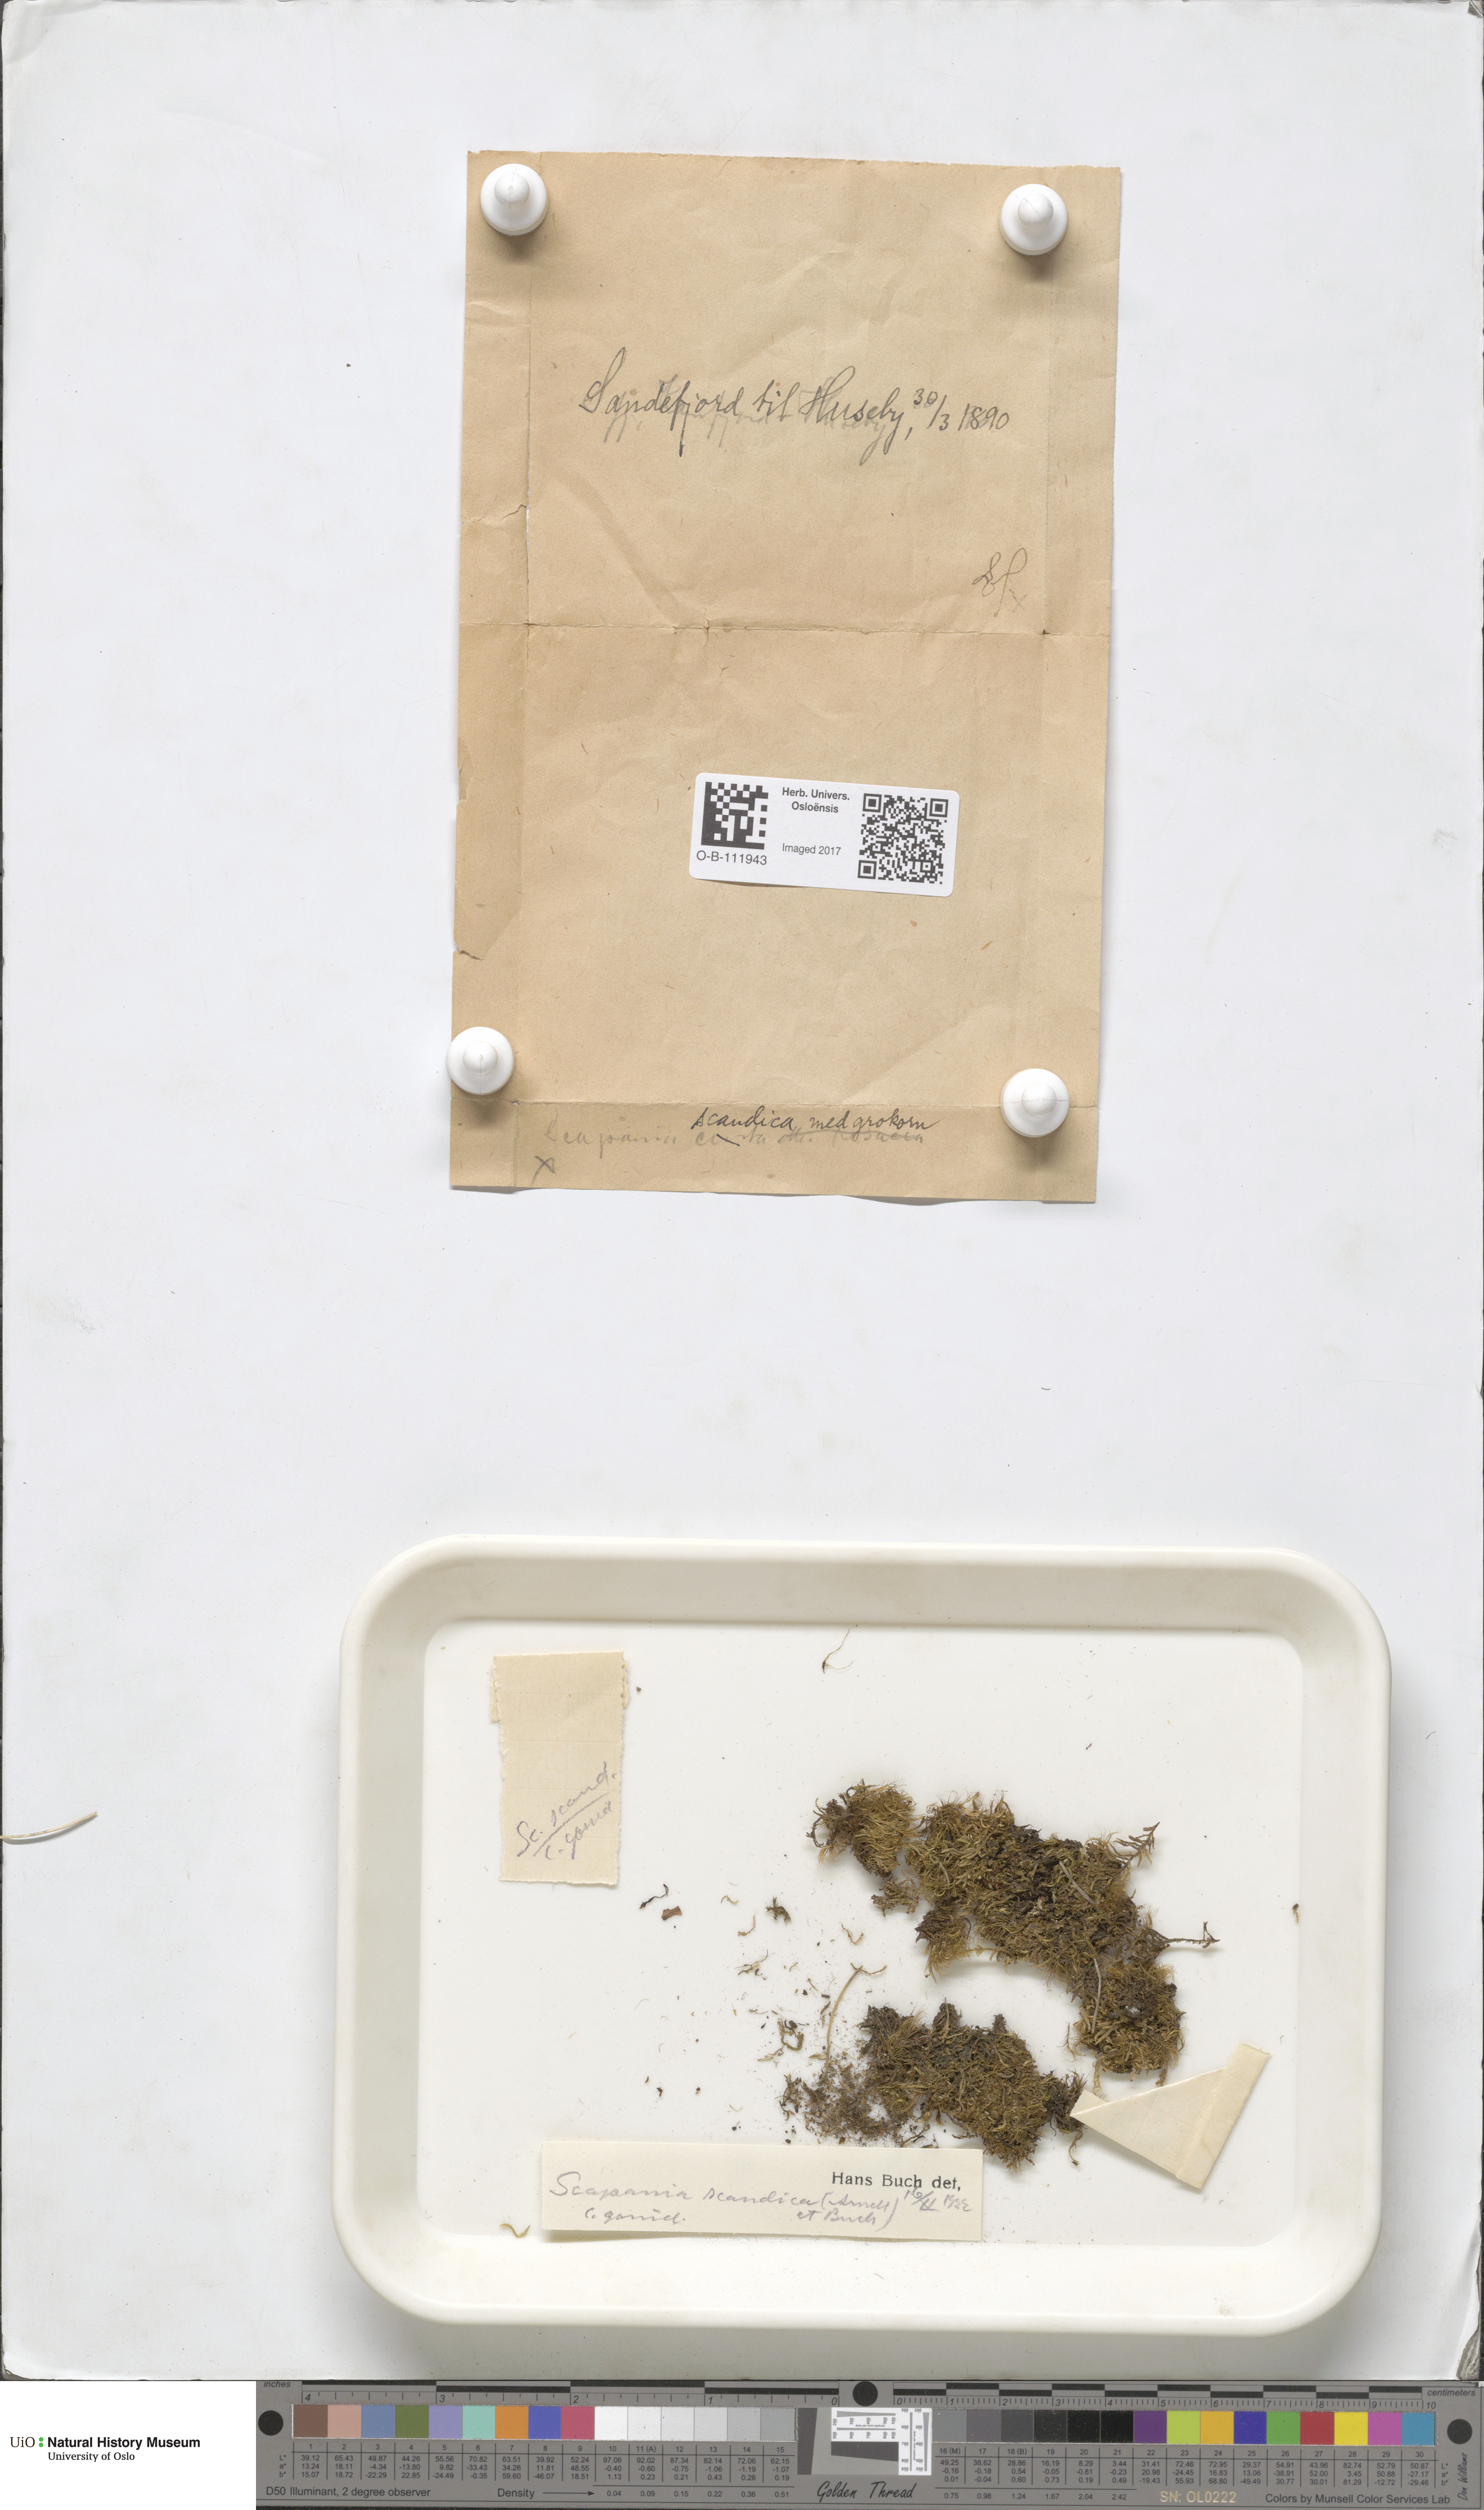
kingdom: Plantae
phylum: Marchantiophyta
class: Jungermanniopsida
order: Jungermanniales
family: Scapaniaceae
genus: Scapania
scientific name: Scapania scandica
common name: Norwegian earwort
